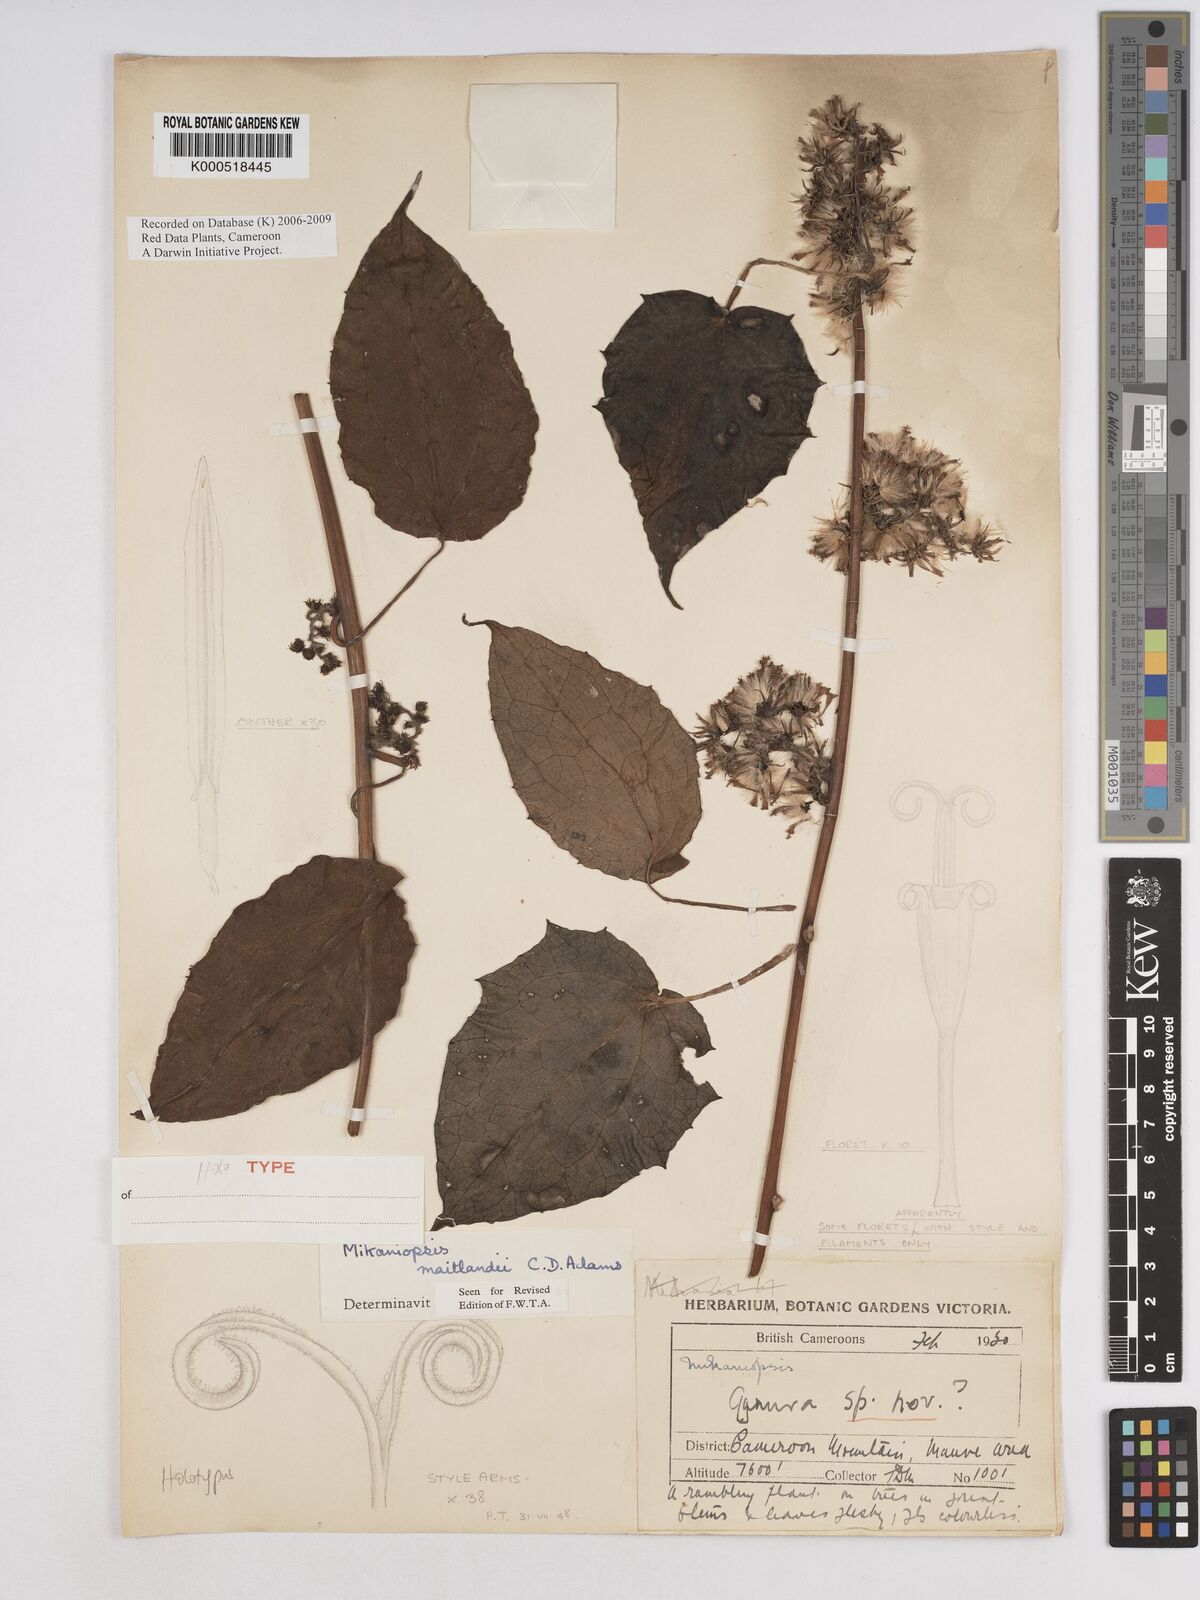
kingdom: Plantae
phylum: Tracheophyta
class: Magnoliopsida
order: Asterales
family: Asteraceae
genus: Mikaniopsis
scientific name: Mikaniopsis maitlandii
